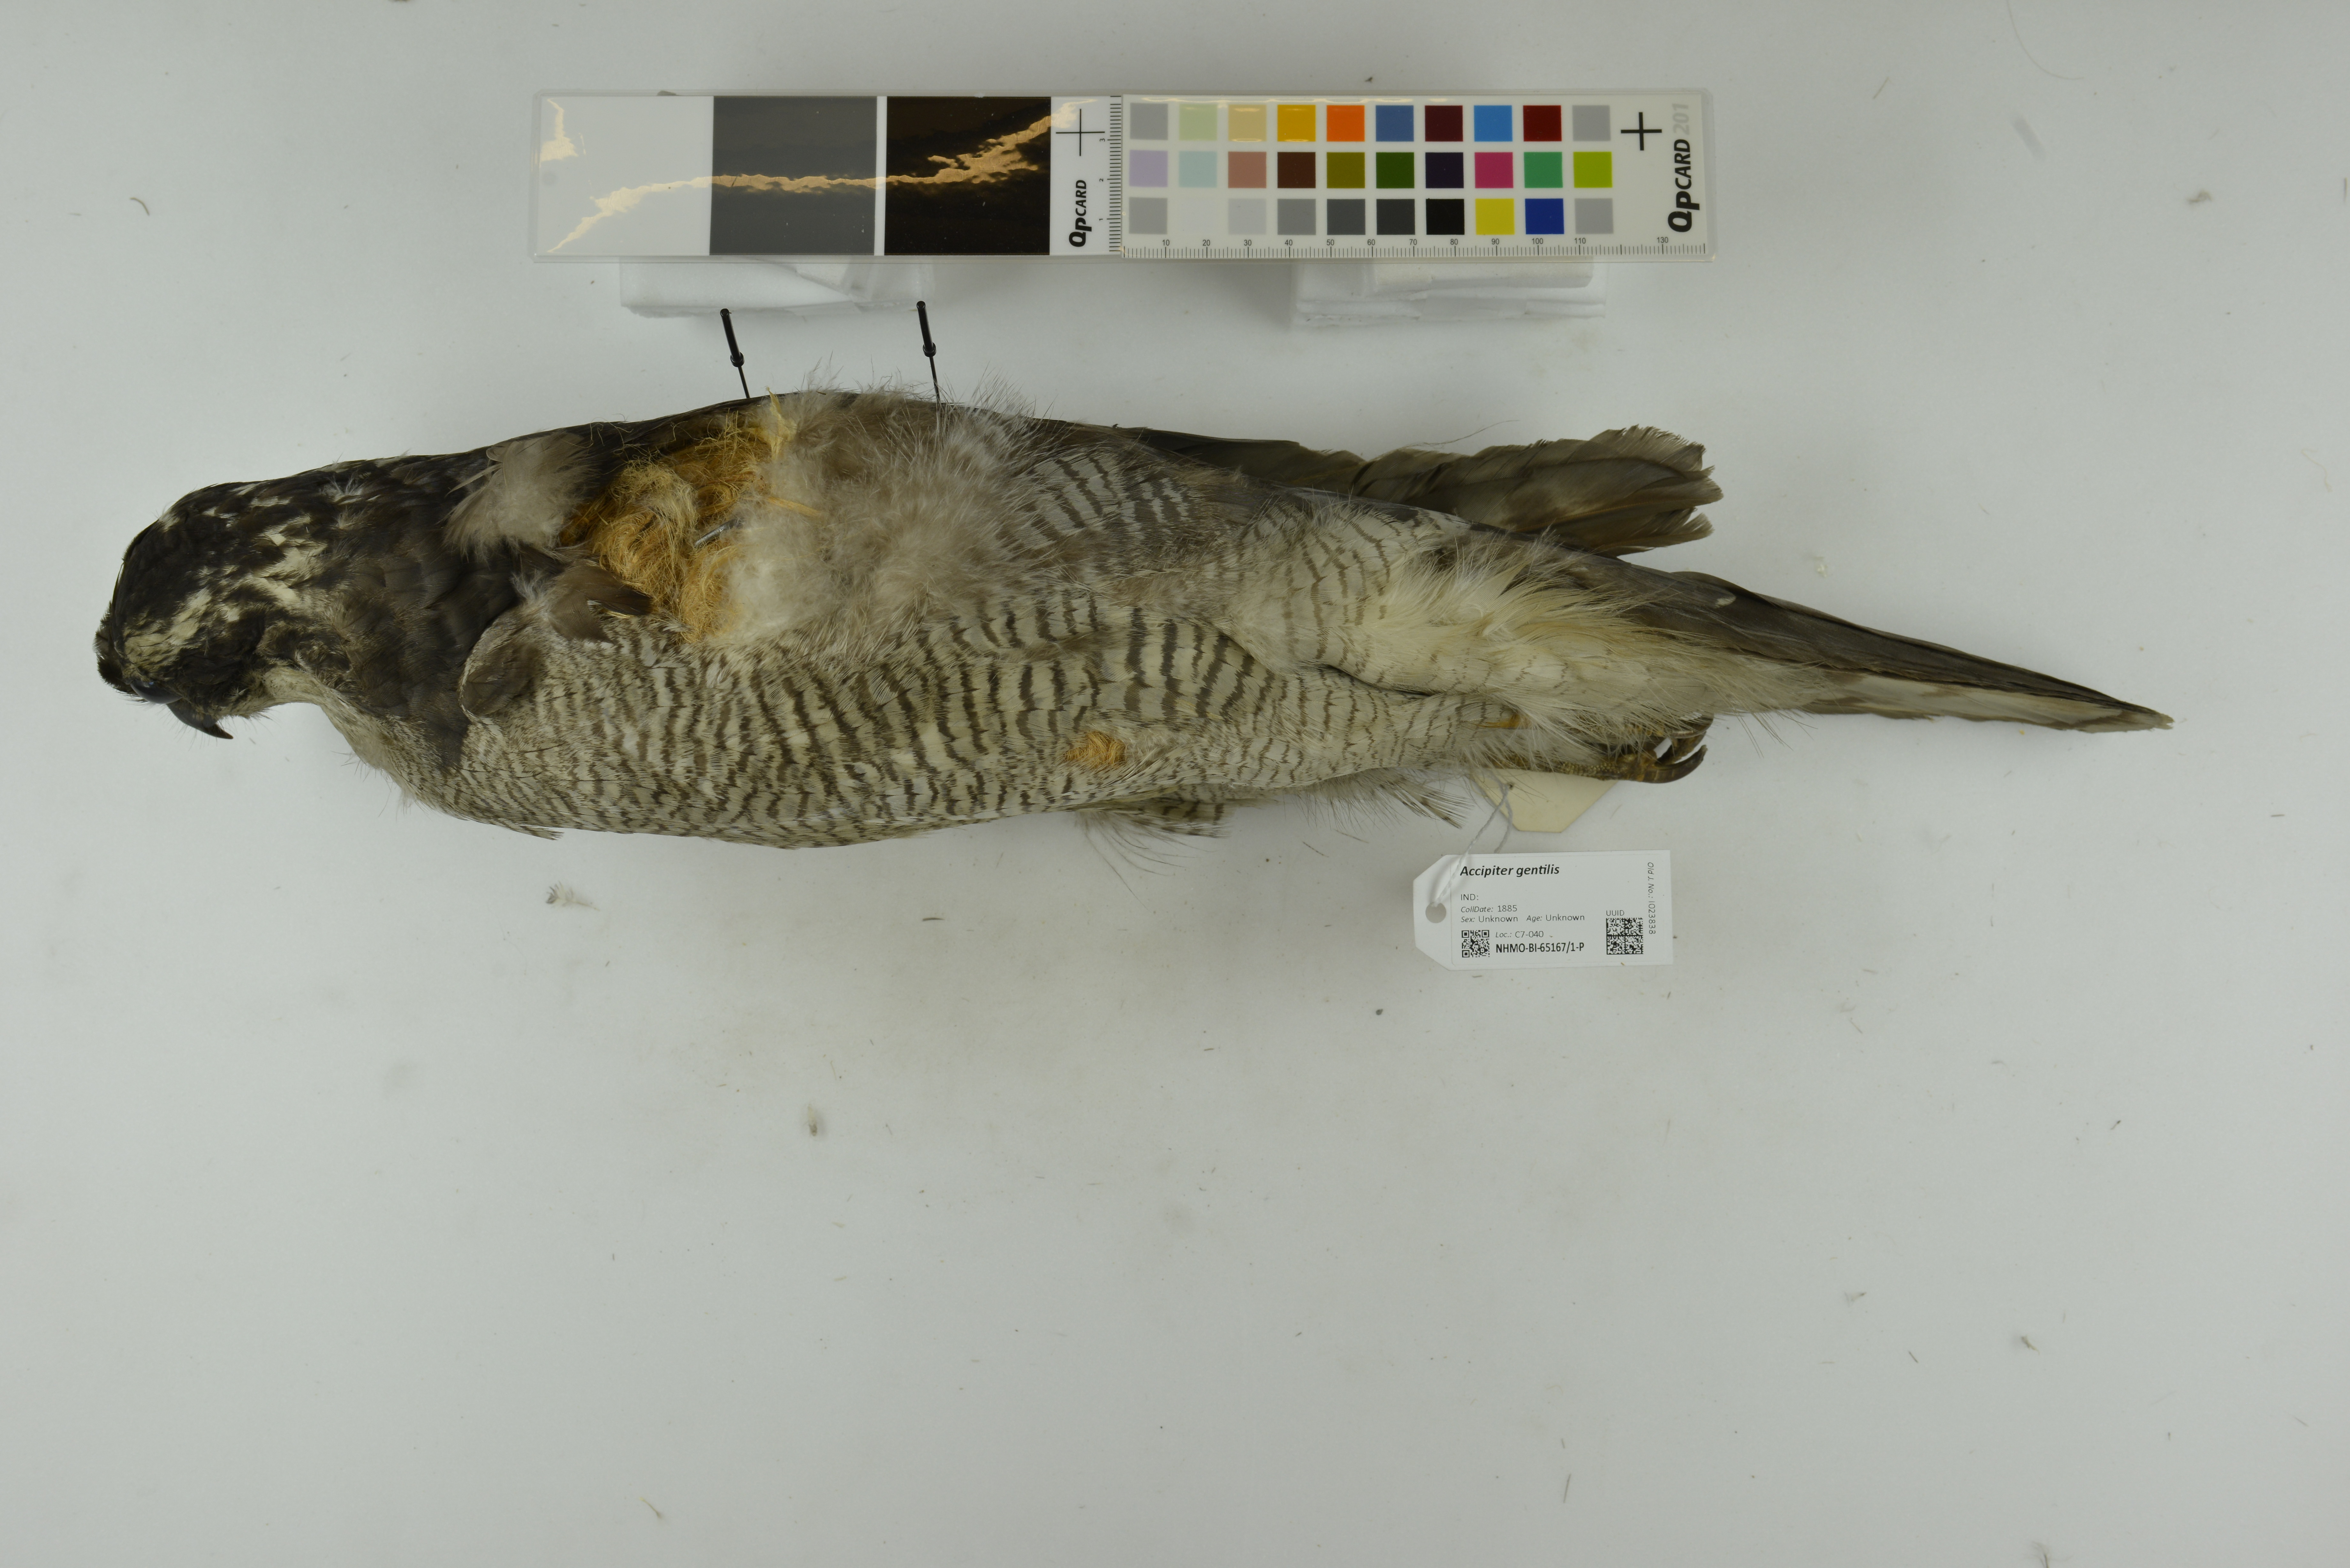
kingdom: Animalia
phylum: Chordata
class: Aves
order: Accipitriformes
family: Accipitridae
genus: Accipiter
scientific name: Accipiter gentilis
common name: Northern goshawk
